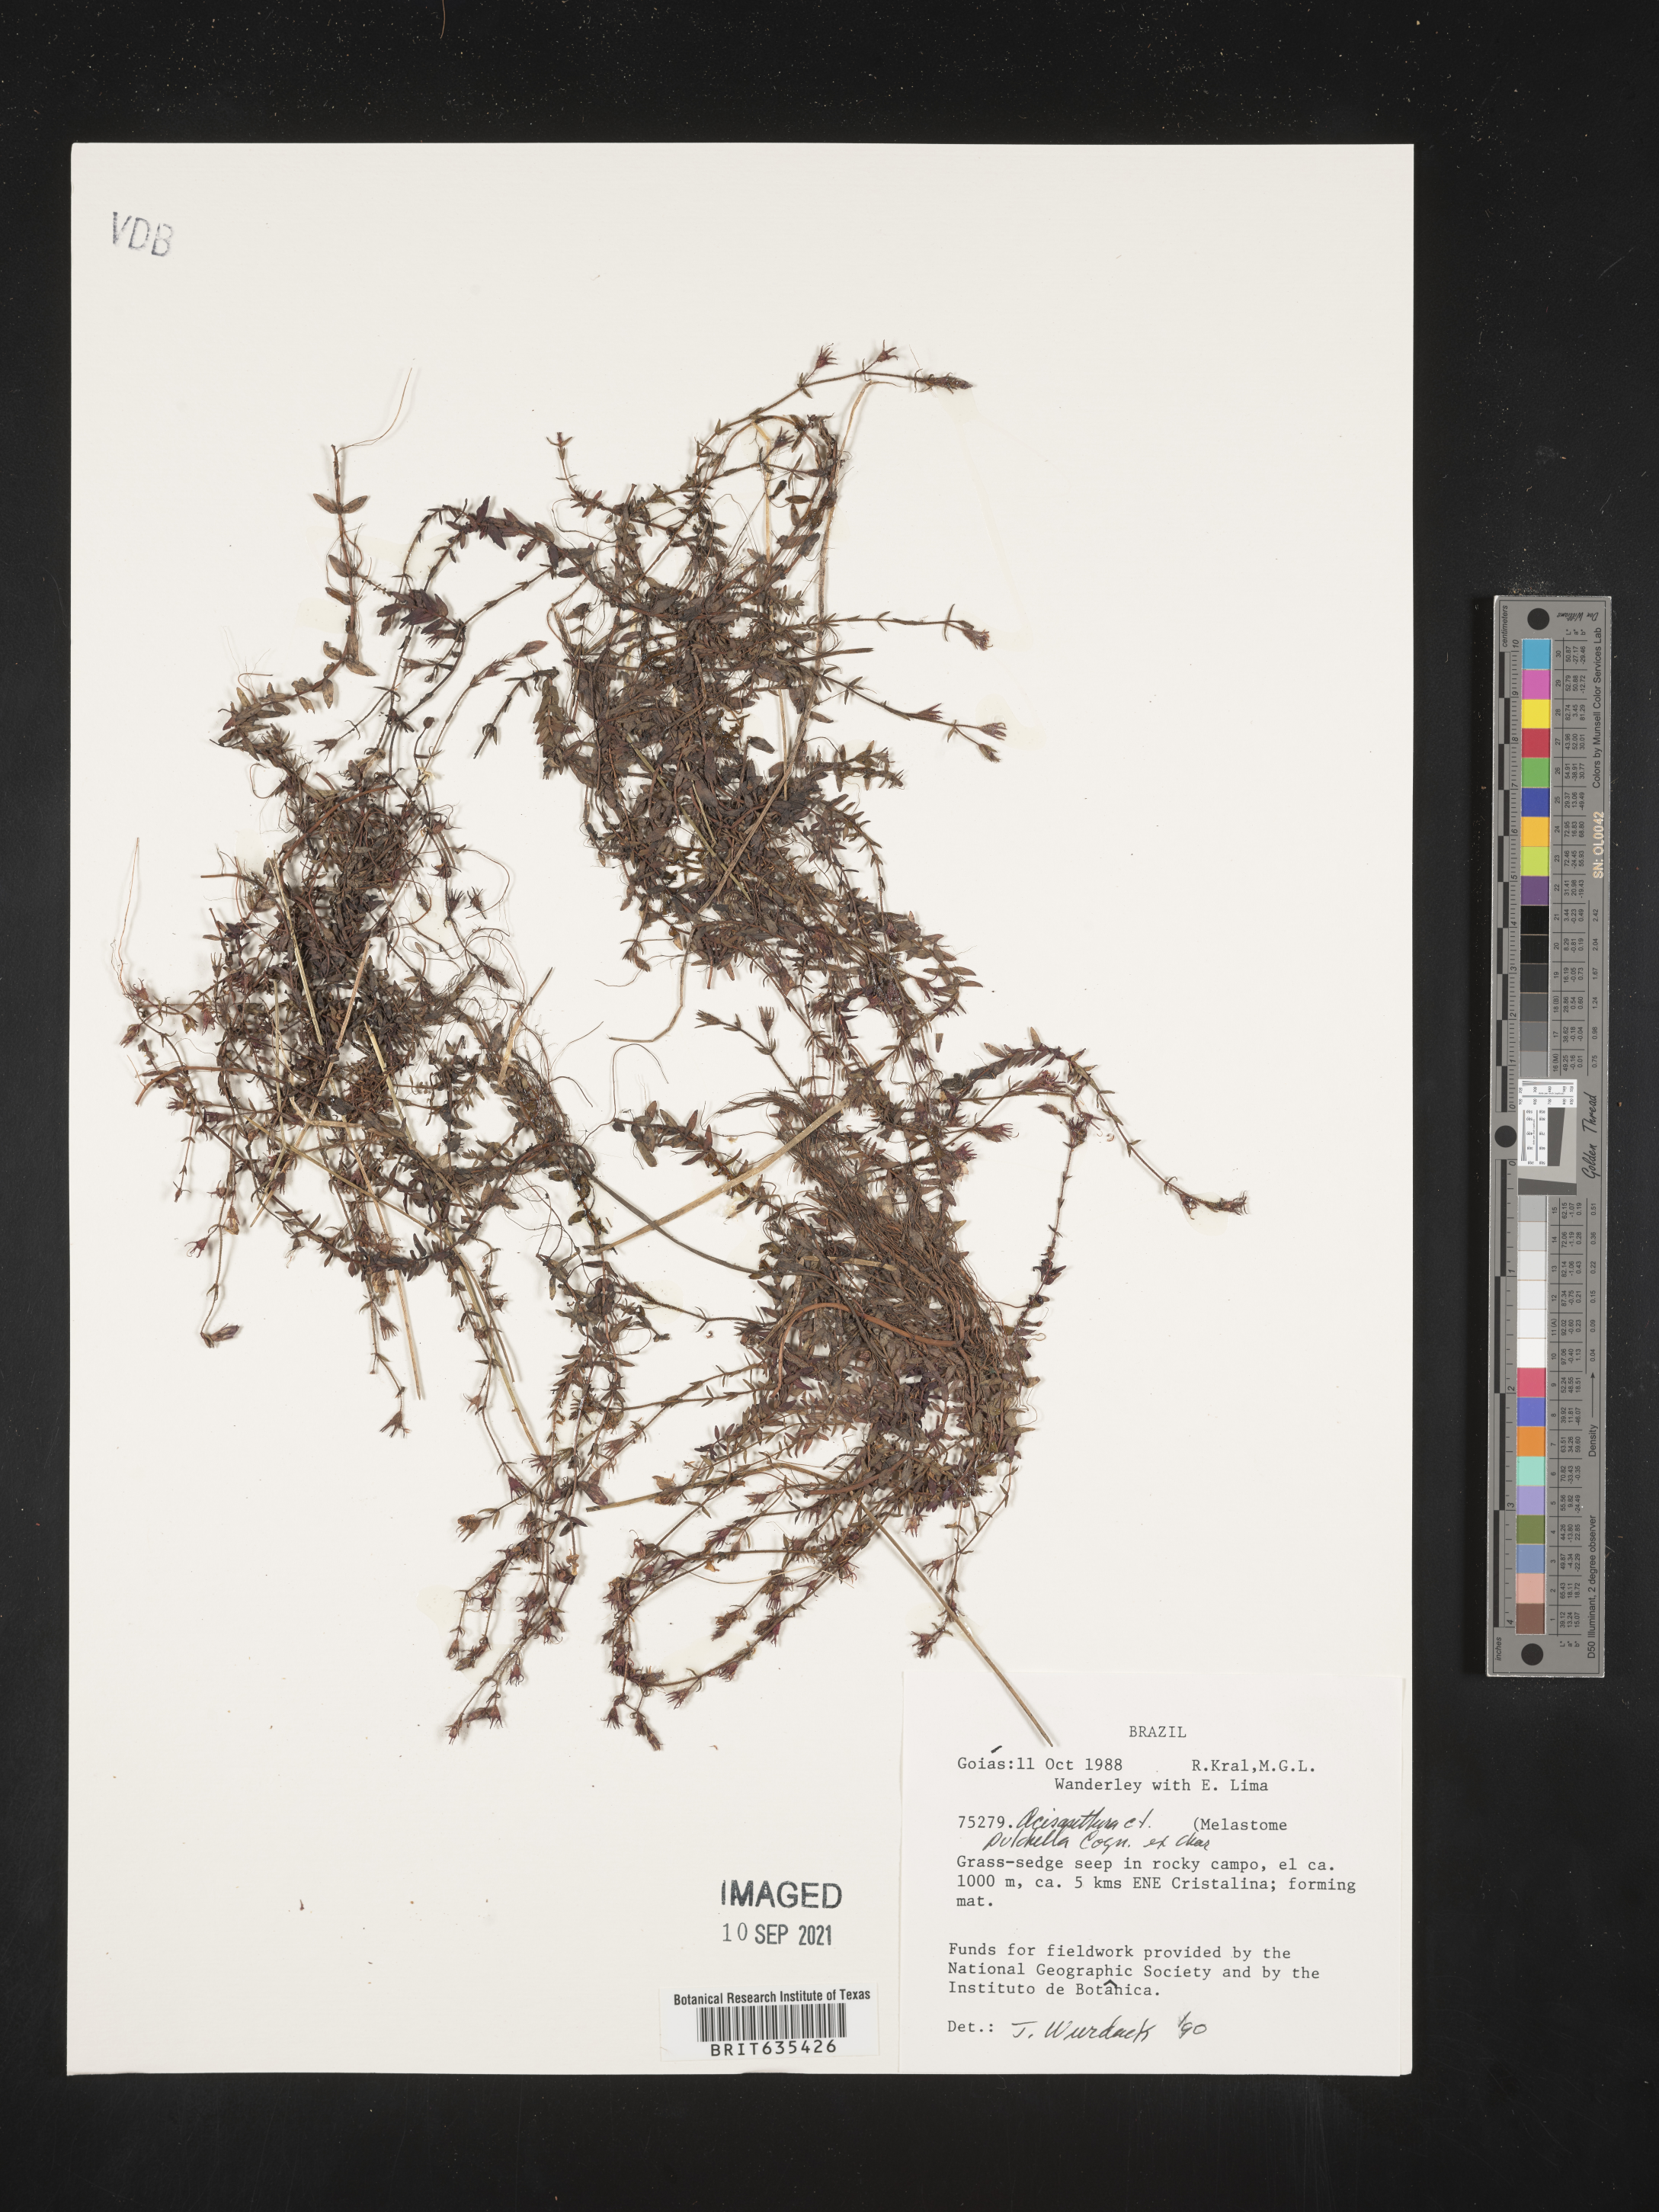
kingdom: Plantae
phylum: Tracheophyta
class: Magnoliopsida
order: Myrtales
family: Melastomataceae
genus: Acisanthera
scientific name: Acisanthera
